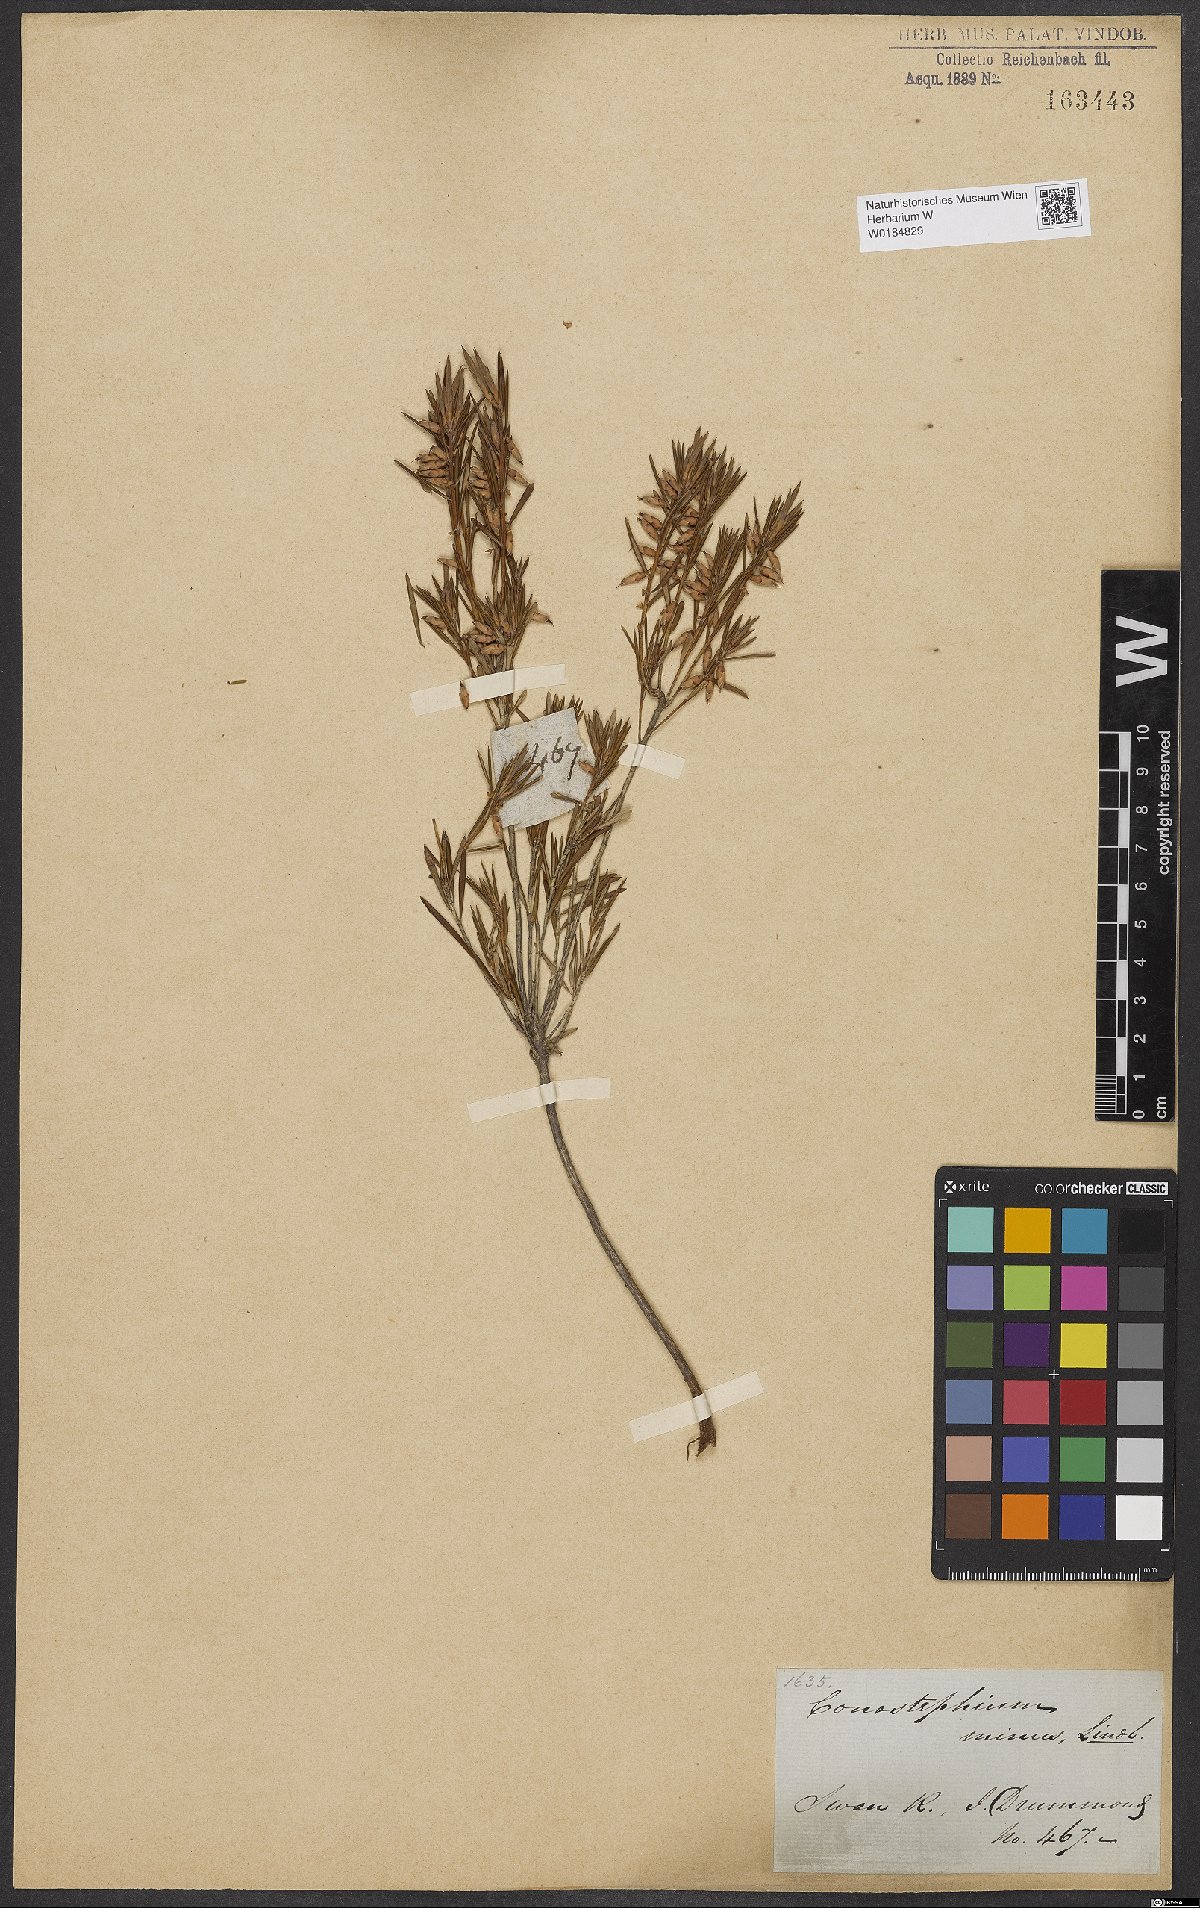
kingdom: Plantae
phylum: Tracheophyta
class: Magnoliopsida
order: Ericales
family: Ericaceae
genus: Conostephium
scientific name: Conostephium minus
